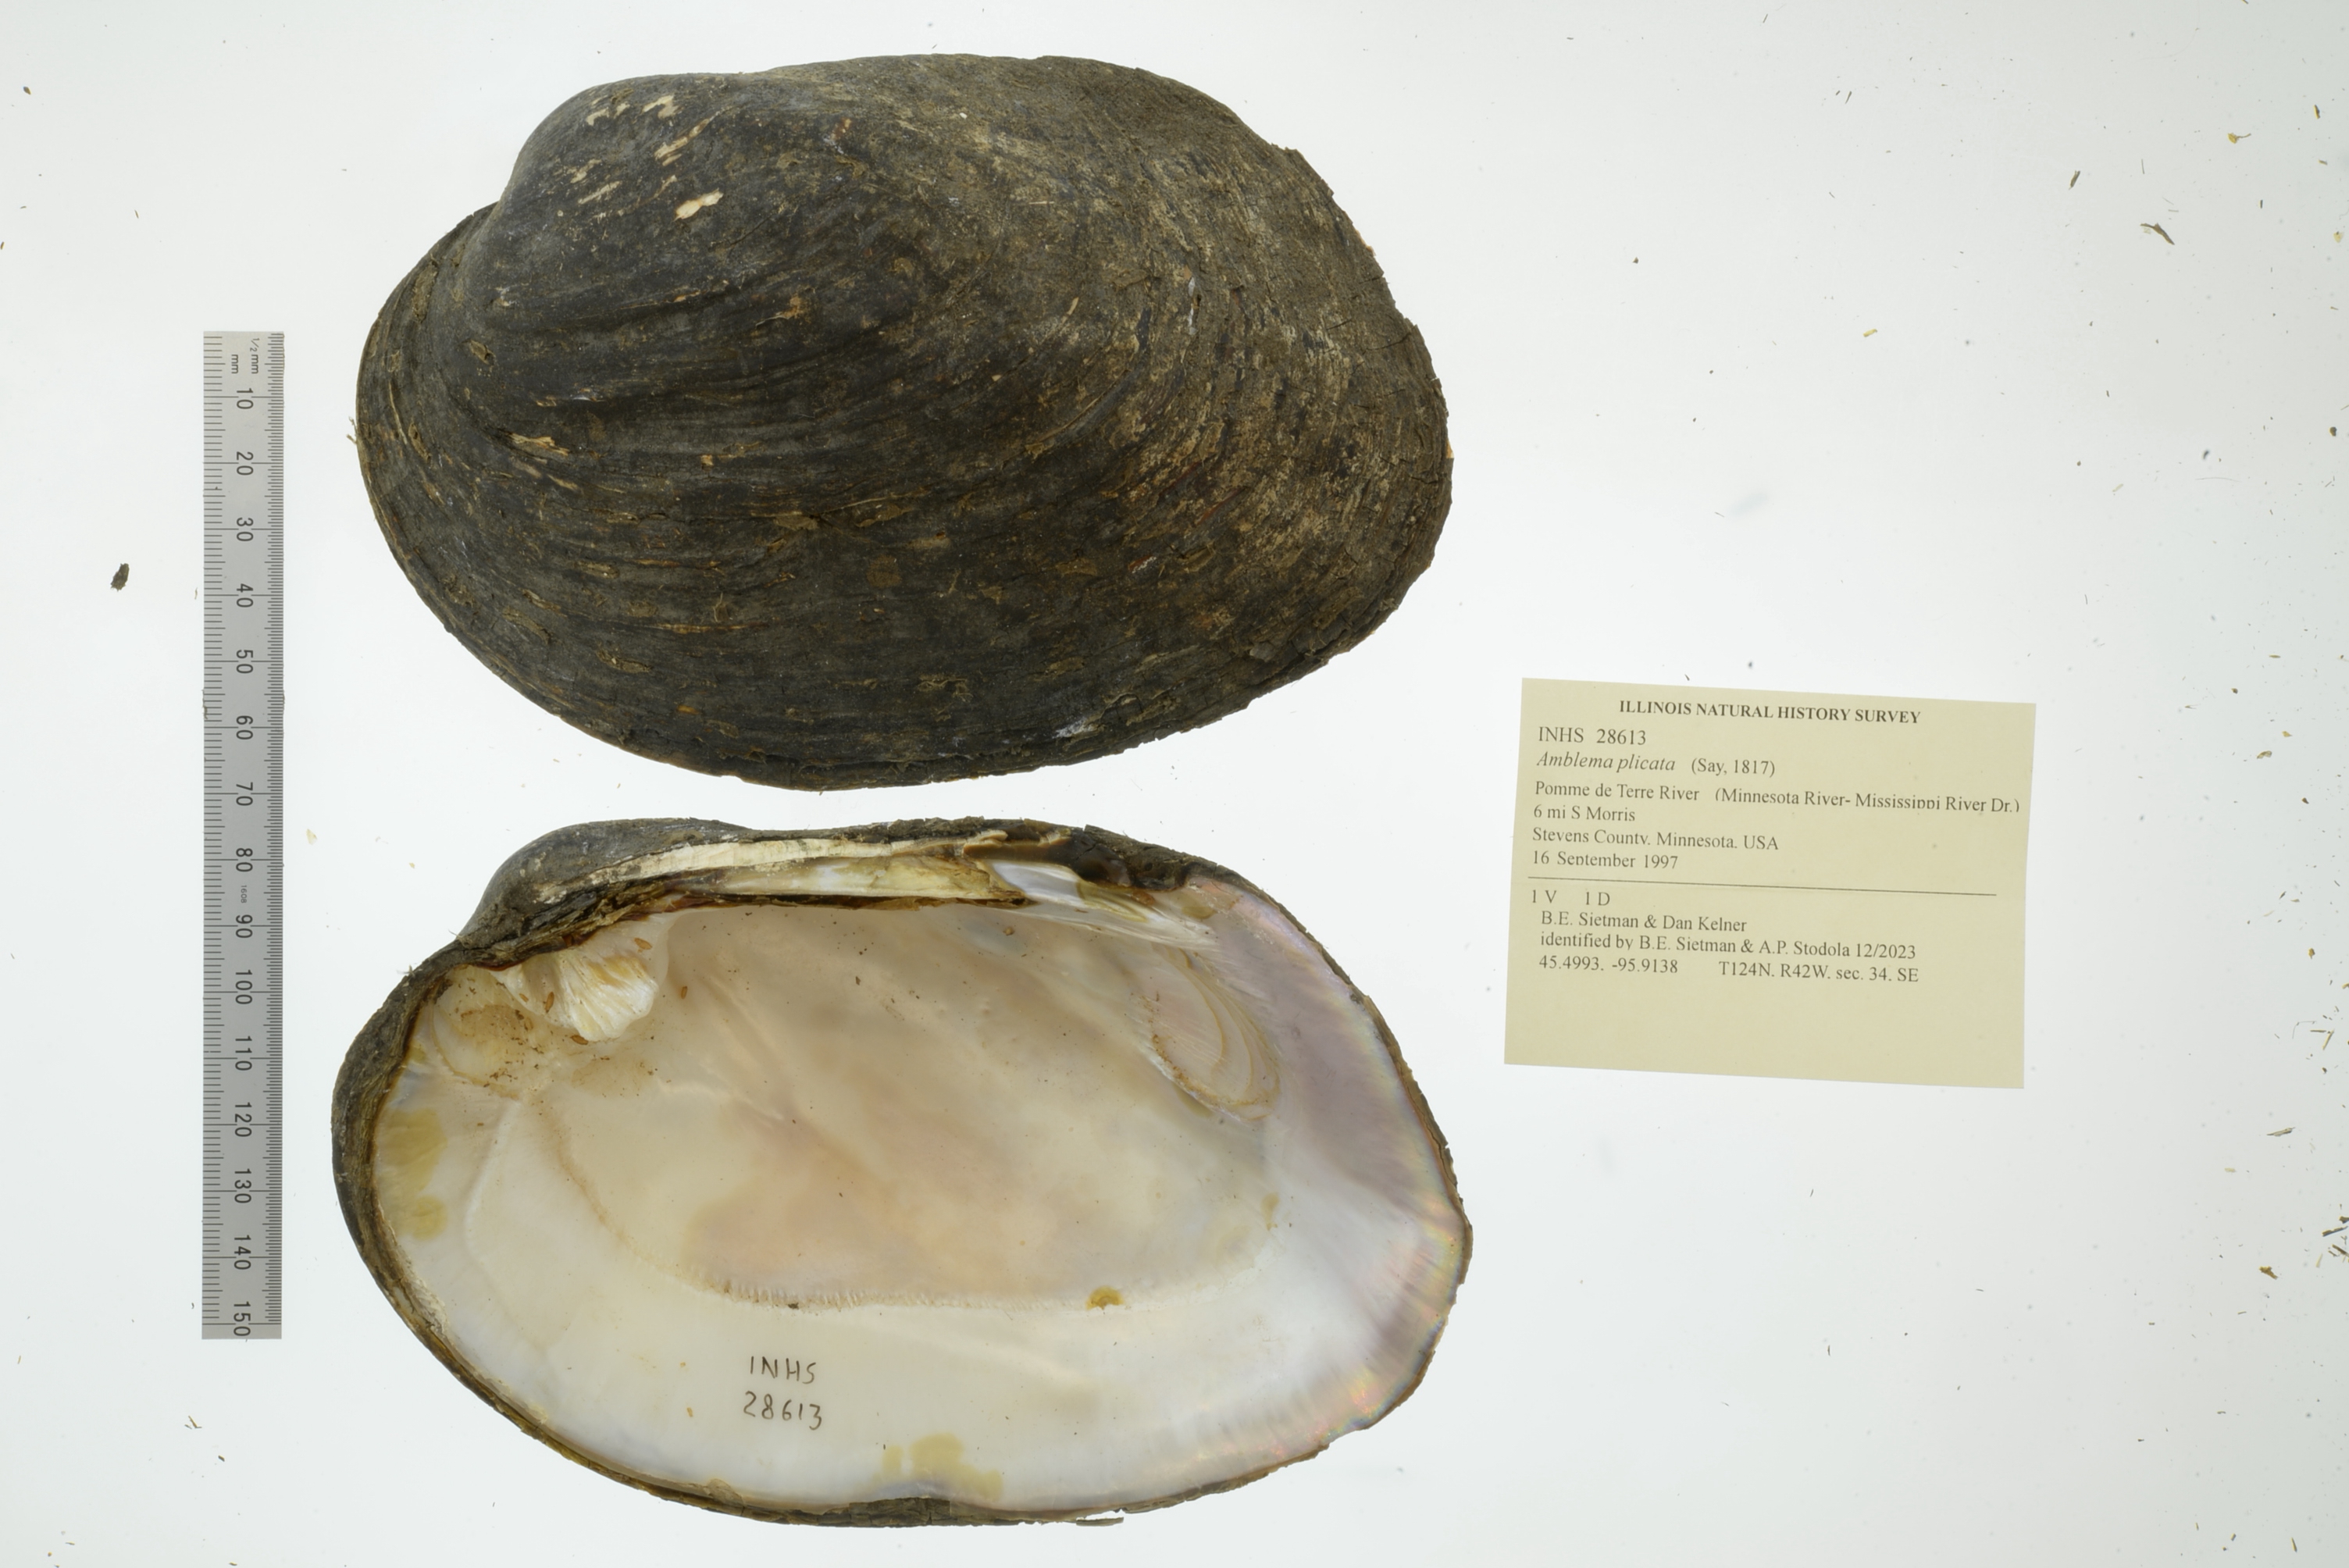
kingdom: Animalia
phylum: Mollusca
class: Bivalvia
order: Unionida
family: Unionidae
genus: Amblema
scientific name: Amblema plicata
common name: Threeridge
